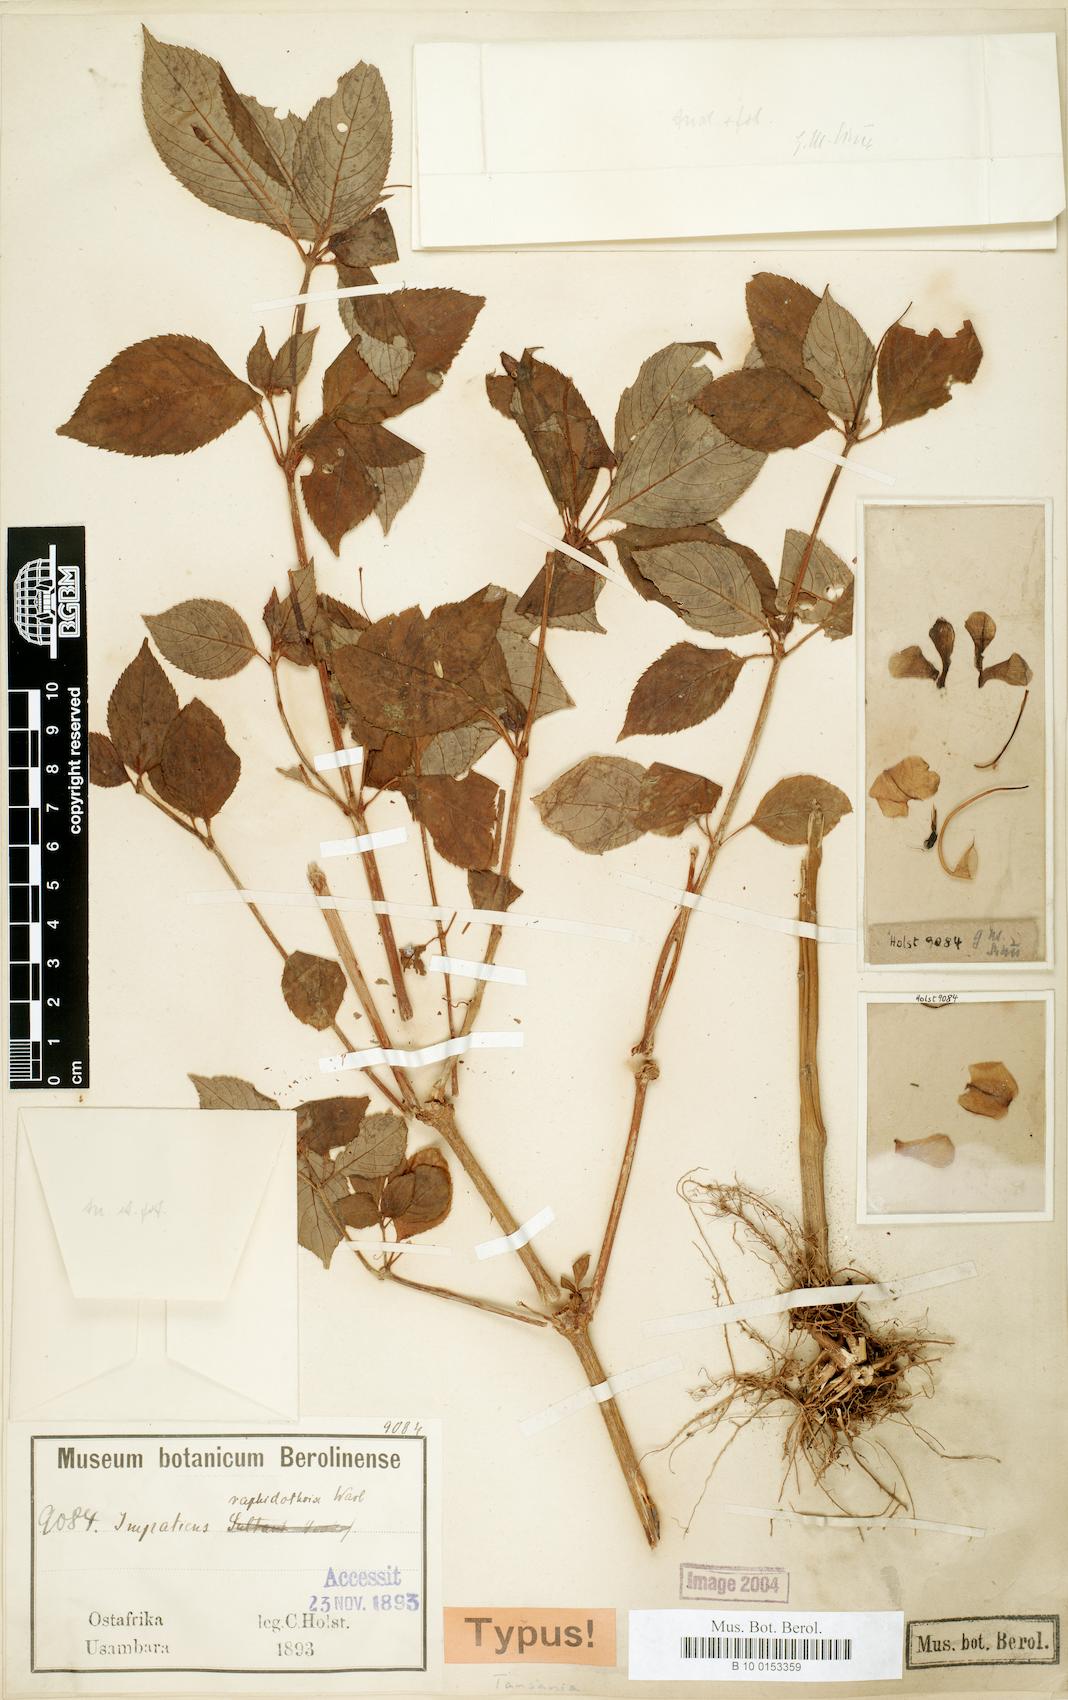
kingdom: Plantae
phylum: Tracheophyta
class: Magnoliopsida
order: Ericales
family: Balsaminaceae
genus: Impatiens
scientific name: Impatiens raphidothrix
